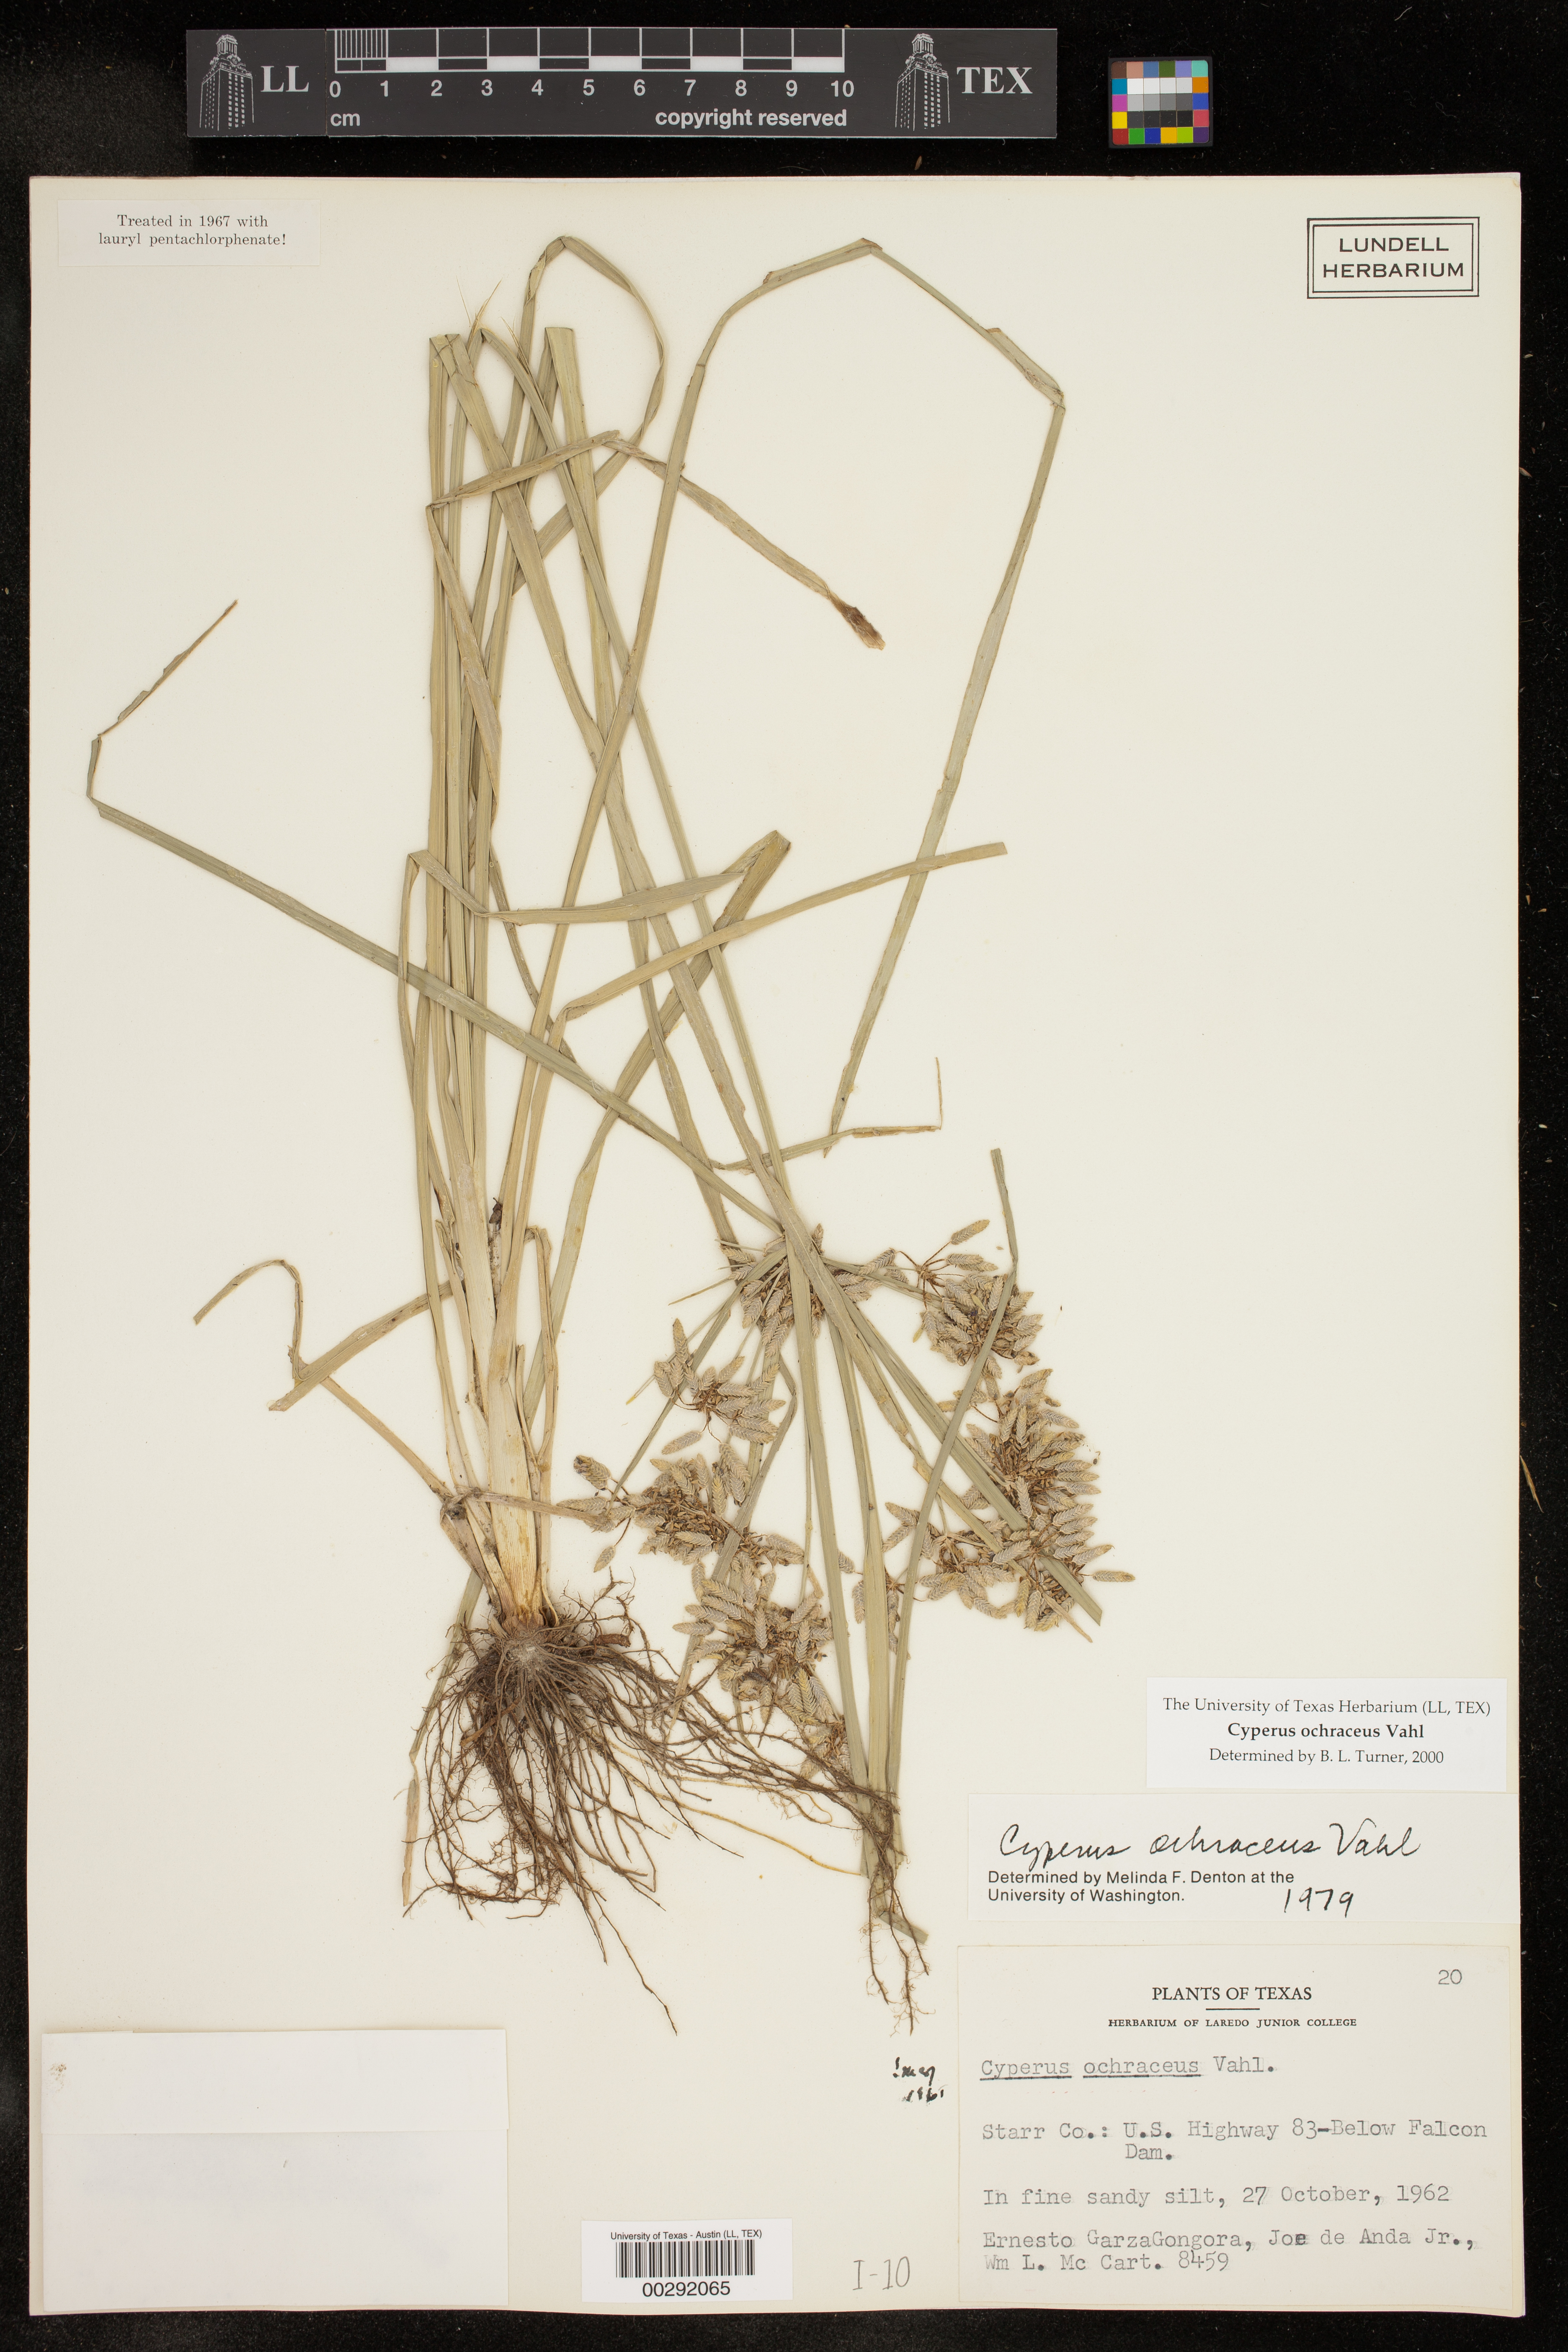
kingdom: Plantae
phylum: Tracheophyta
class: Liliopsida
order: Poales
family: Cyperaceae
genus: Cyperus
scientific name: Cyperus ochraceus
